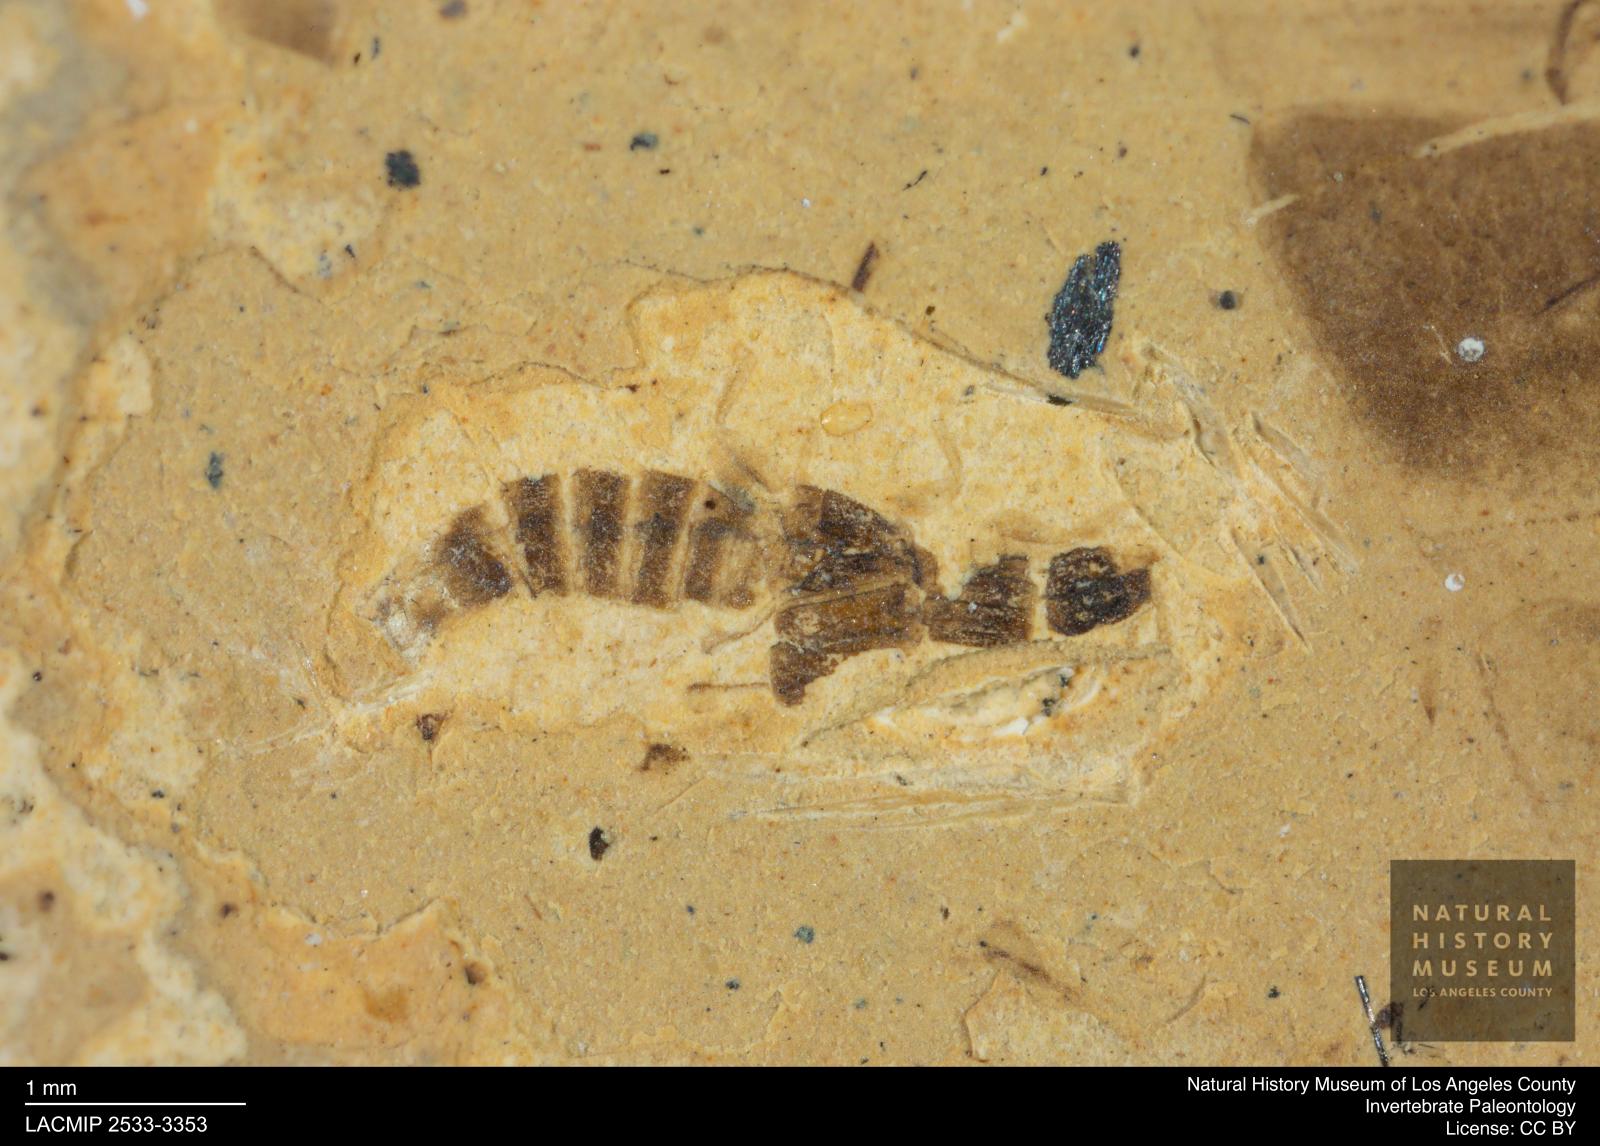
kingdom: Animalia
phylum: Arthropoda
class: Insecta
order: Coleoptera
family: Staphylinidae
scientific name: Staphylinidae
